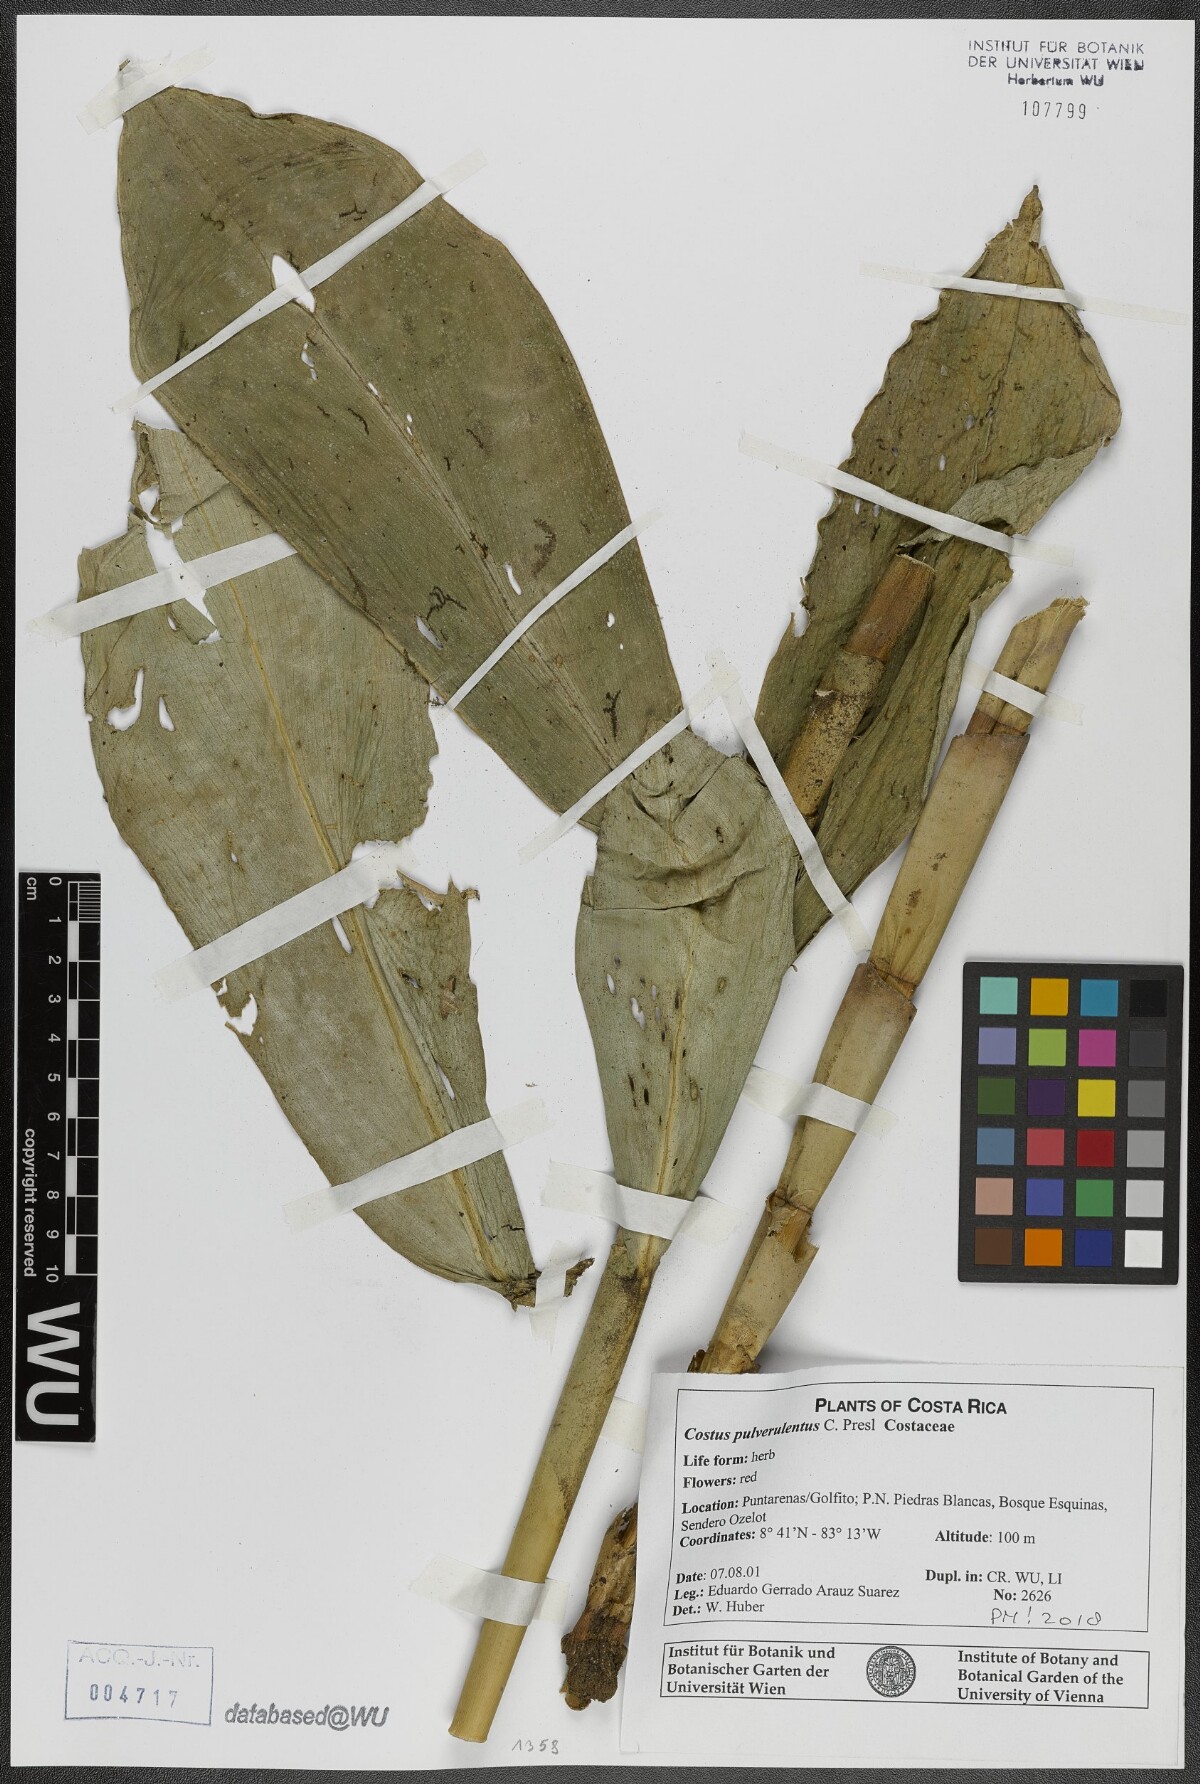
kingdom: Plantae
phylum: Tracheophyta
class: Liliopsida
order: Zingiberales
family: Costaceae
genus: Costus
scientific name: Costus pulverulentus
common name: Spiral ginger
